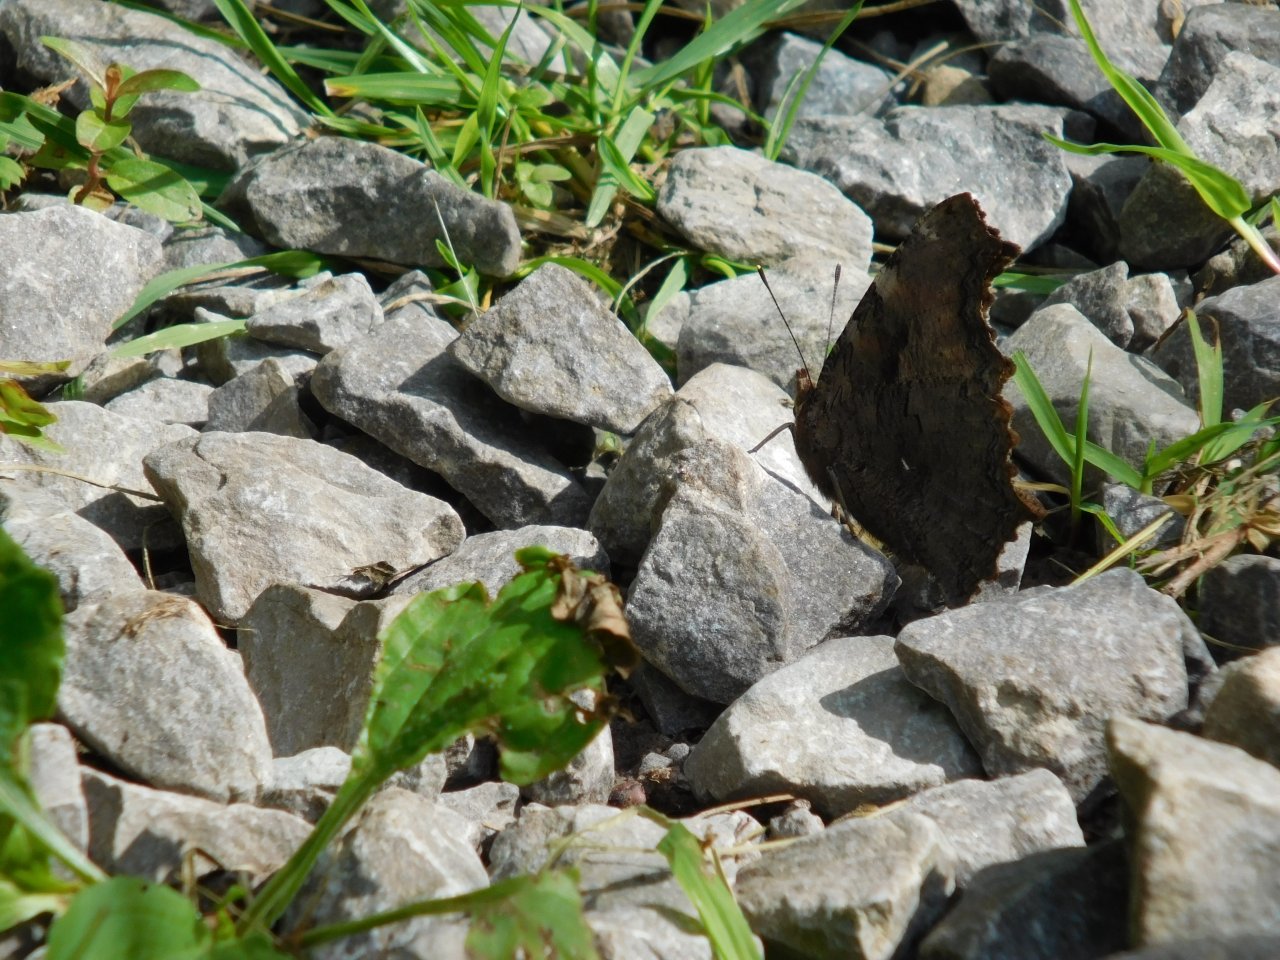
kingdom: Animalia
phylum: Arthropoda
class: Insecta
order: Lepidoptera
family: Nymphalidae
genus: Polygonia
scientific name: Polygonia vaualbum
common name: Compton Tortoiseshell
